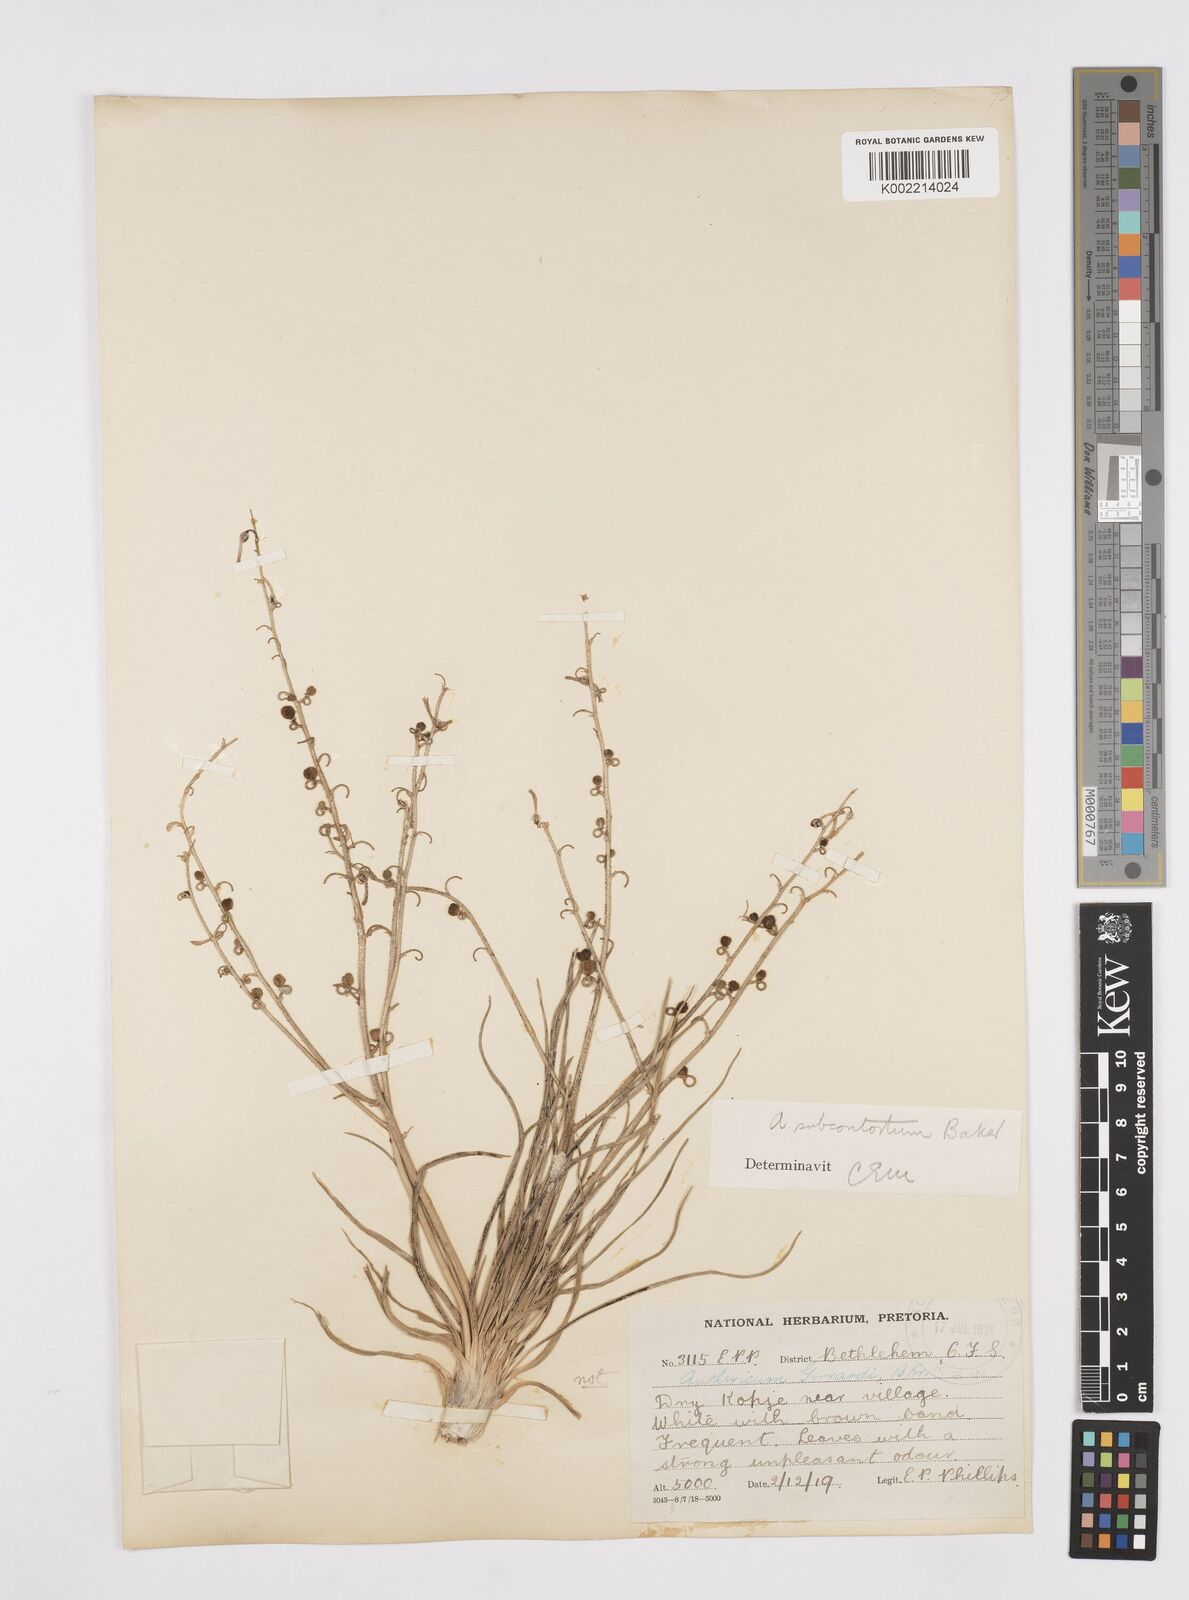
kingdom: Plantae
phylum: Tracheophyta
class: Liliopsida
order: Asparagales
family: Asphodelaceae
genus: Trachyandra
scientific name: Trachyandra gerrardii
